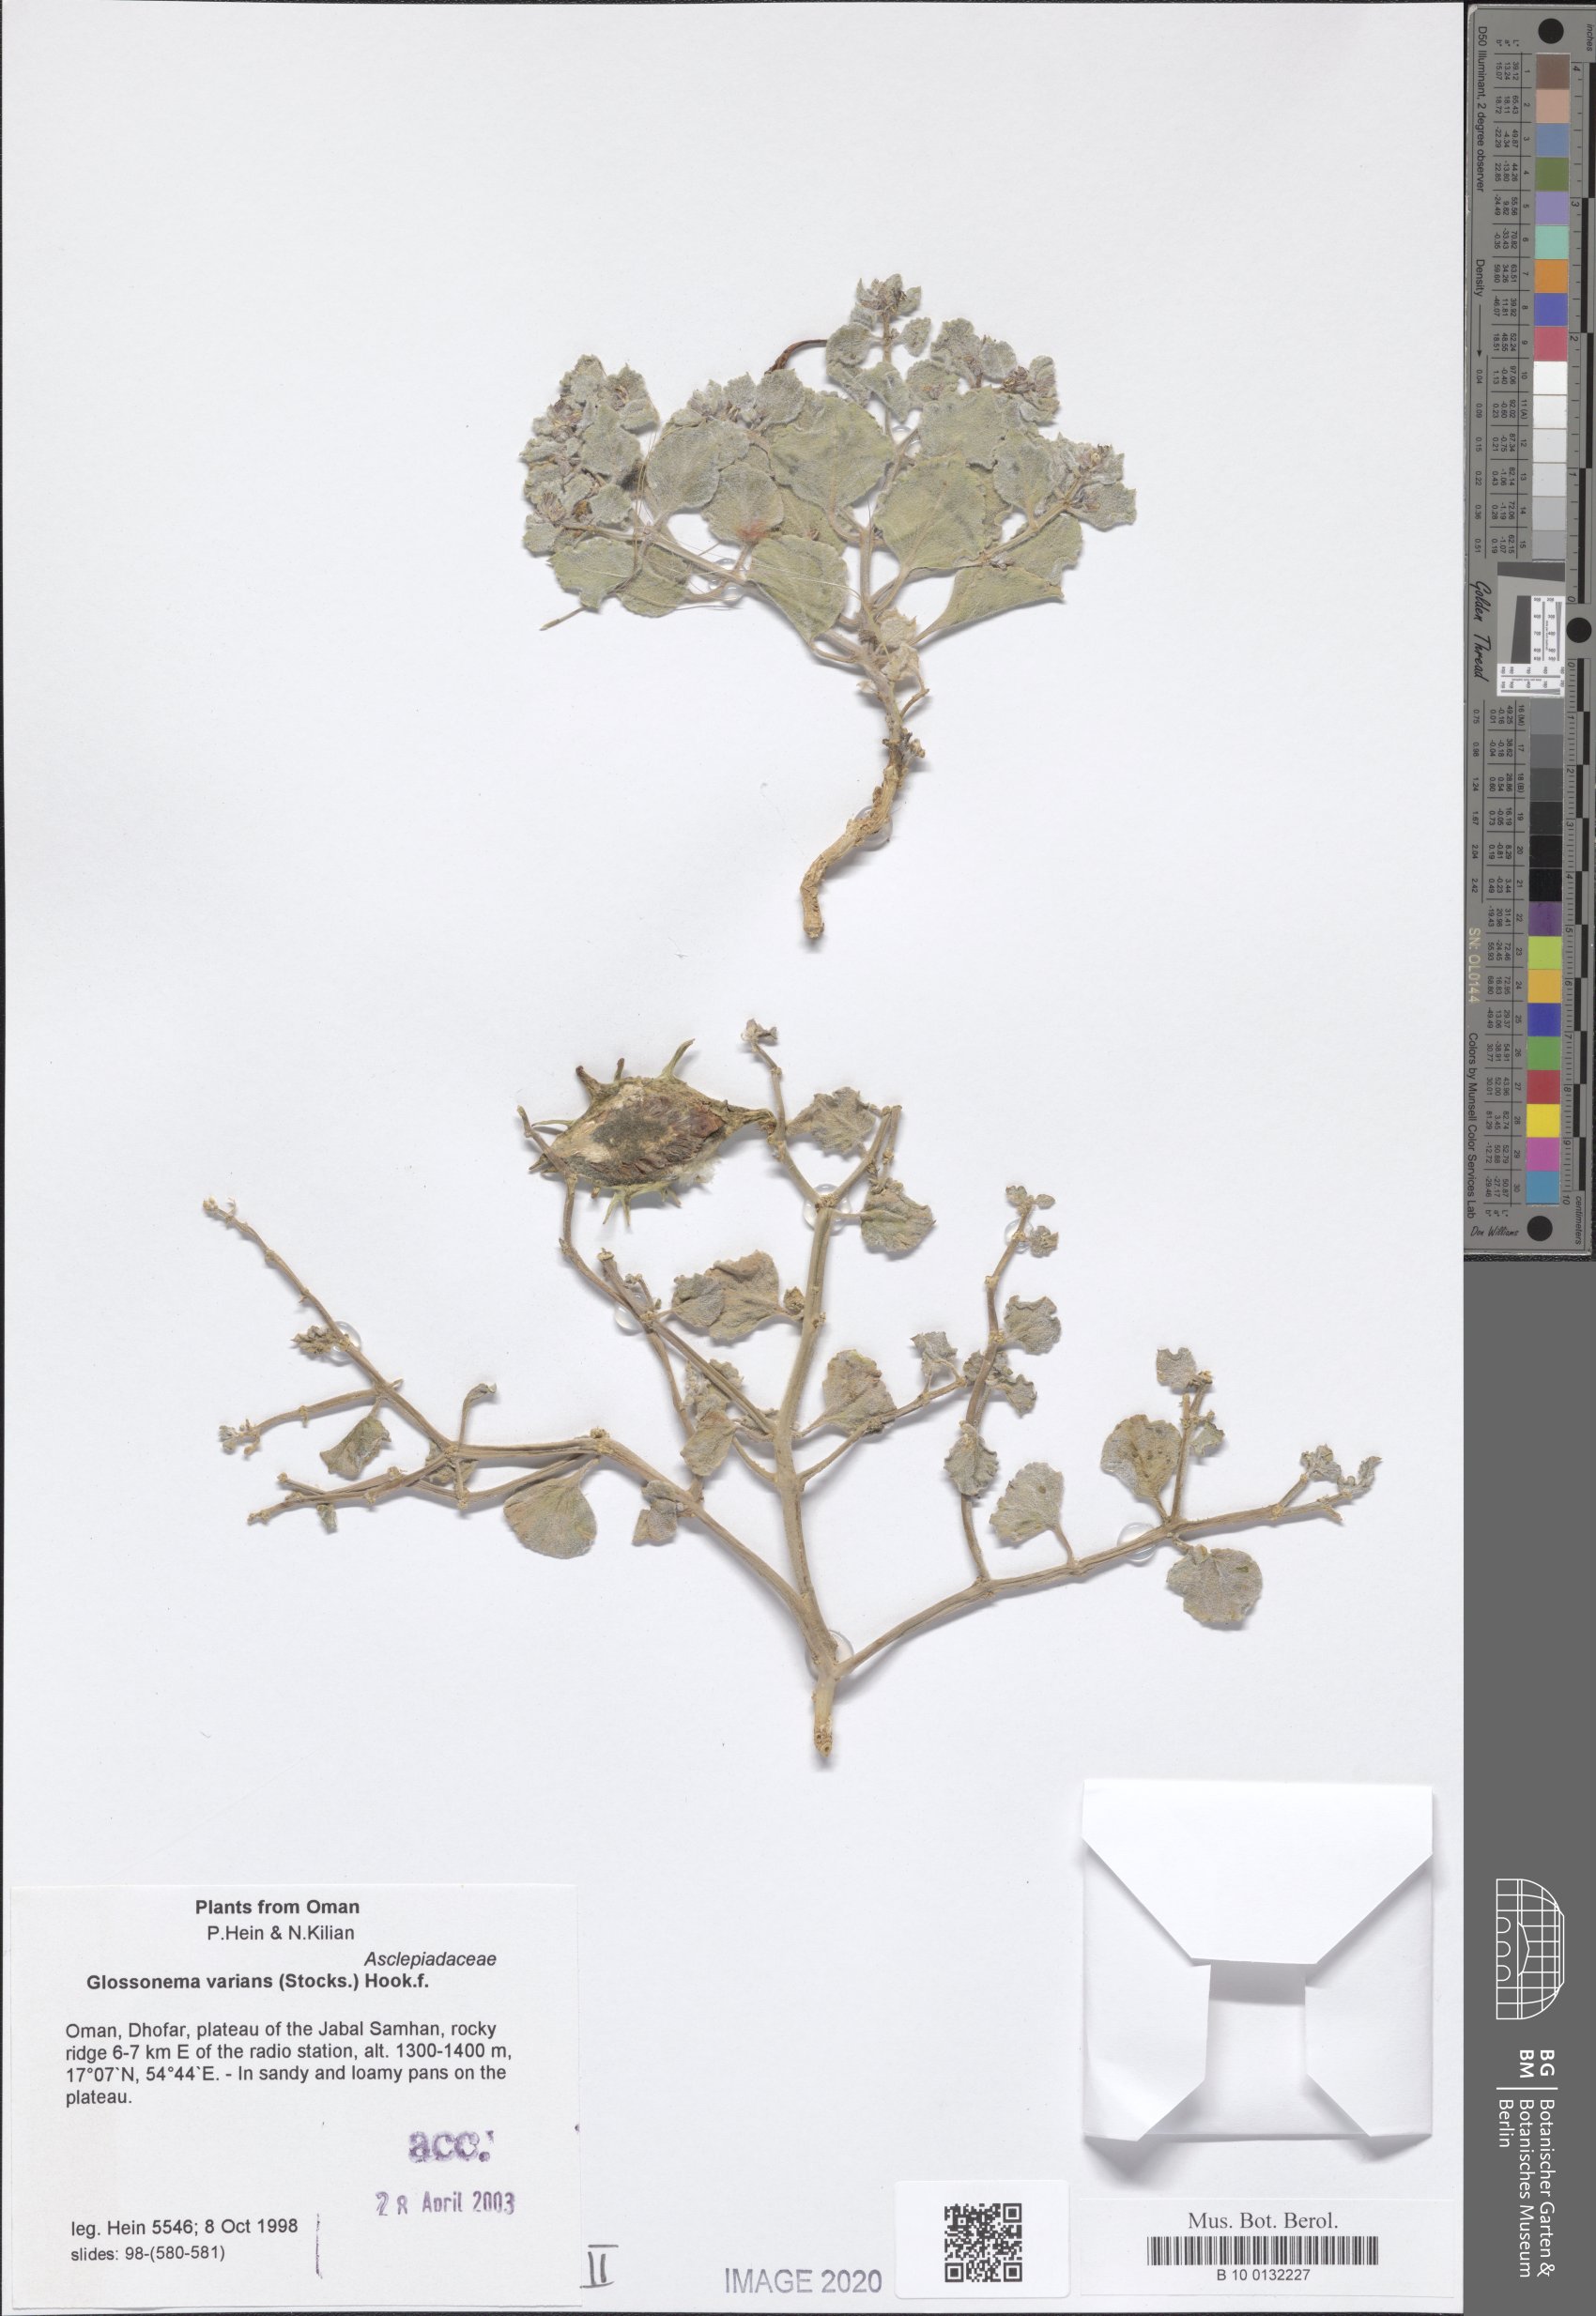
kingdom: Plantae
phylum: Tracheophyta
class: Magnoliopsida
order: Gentianales
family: Apocynaceae
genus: Cynanchum
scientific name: Cynanchum varians
